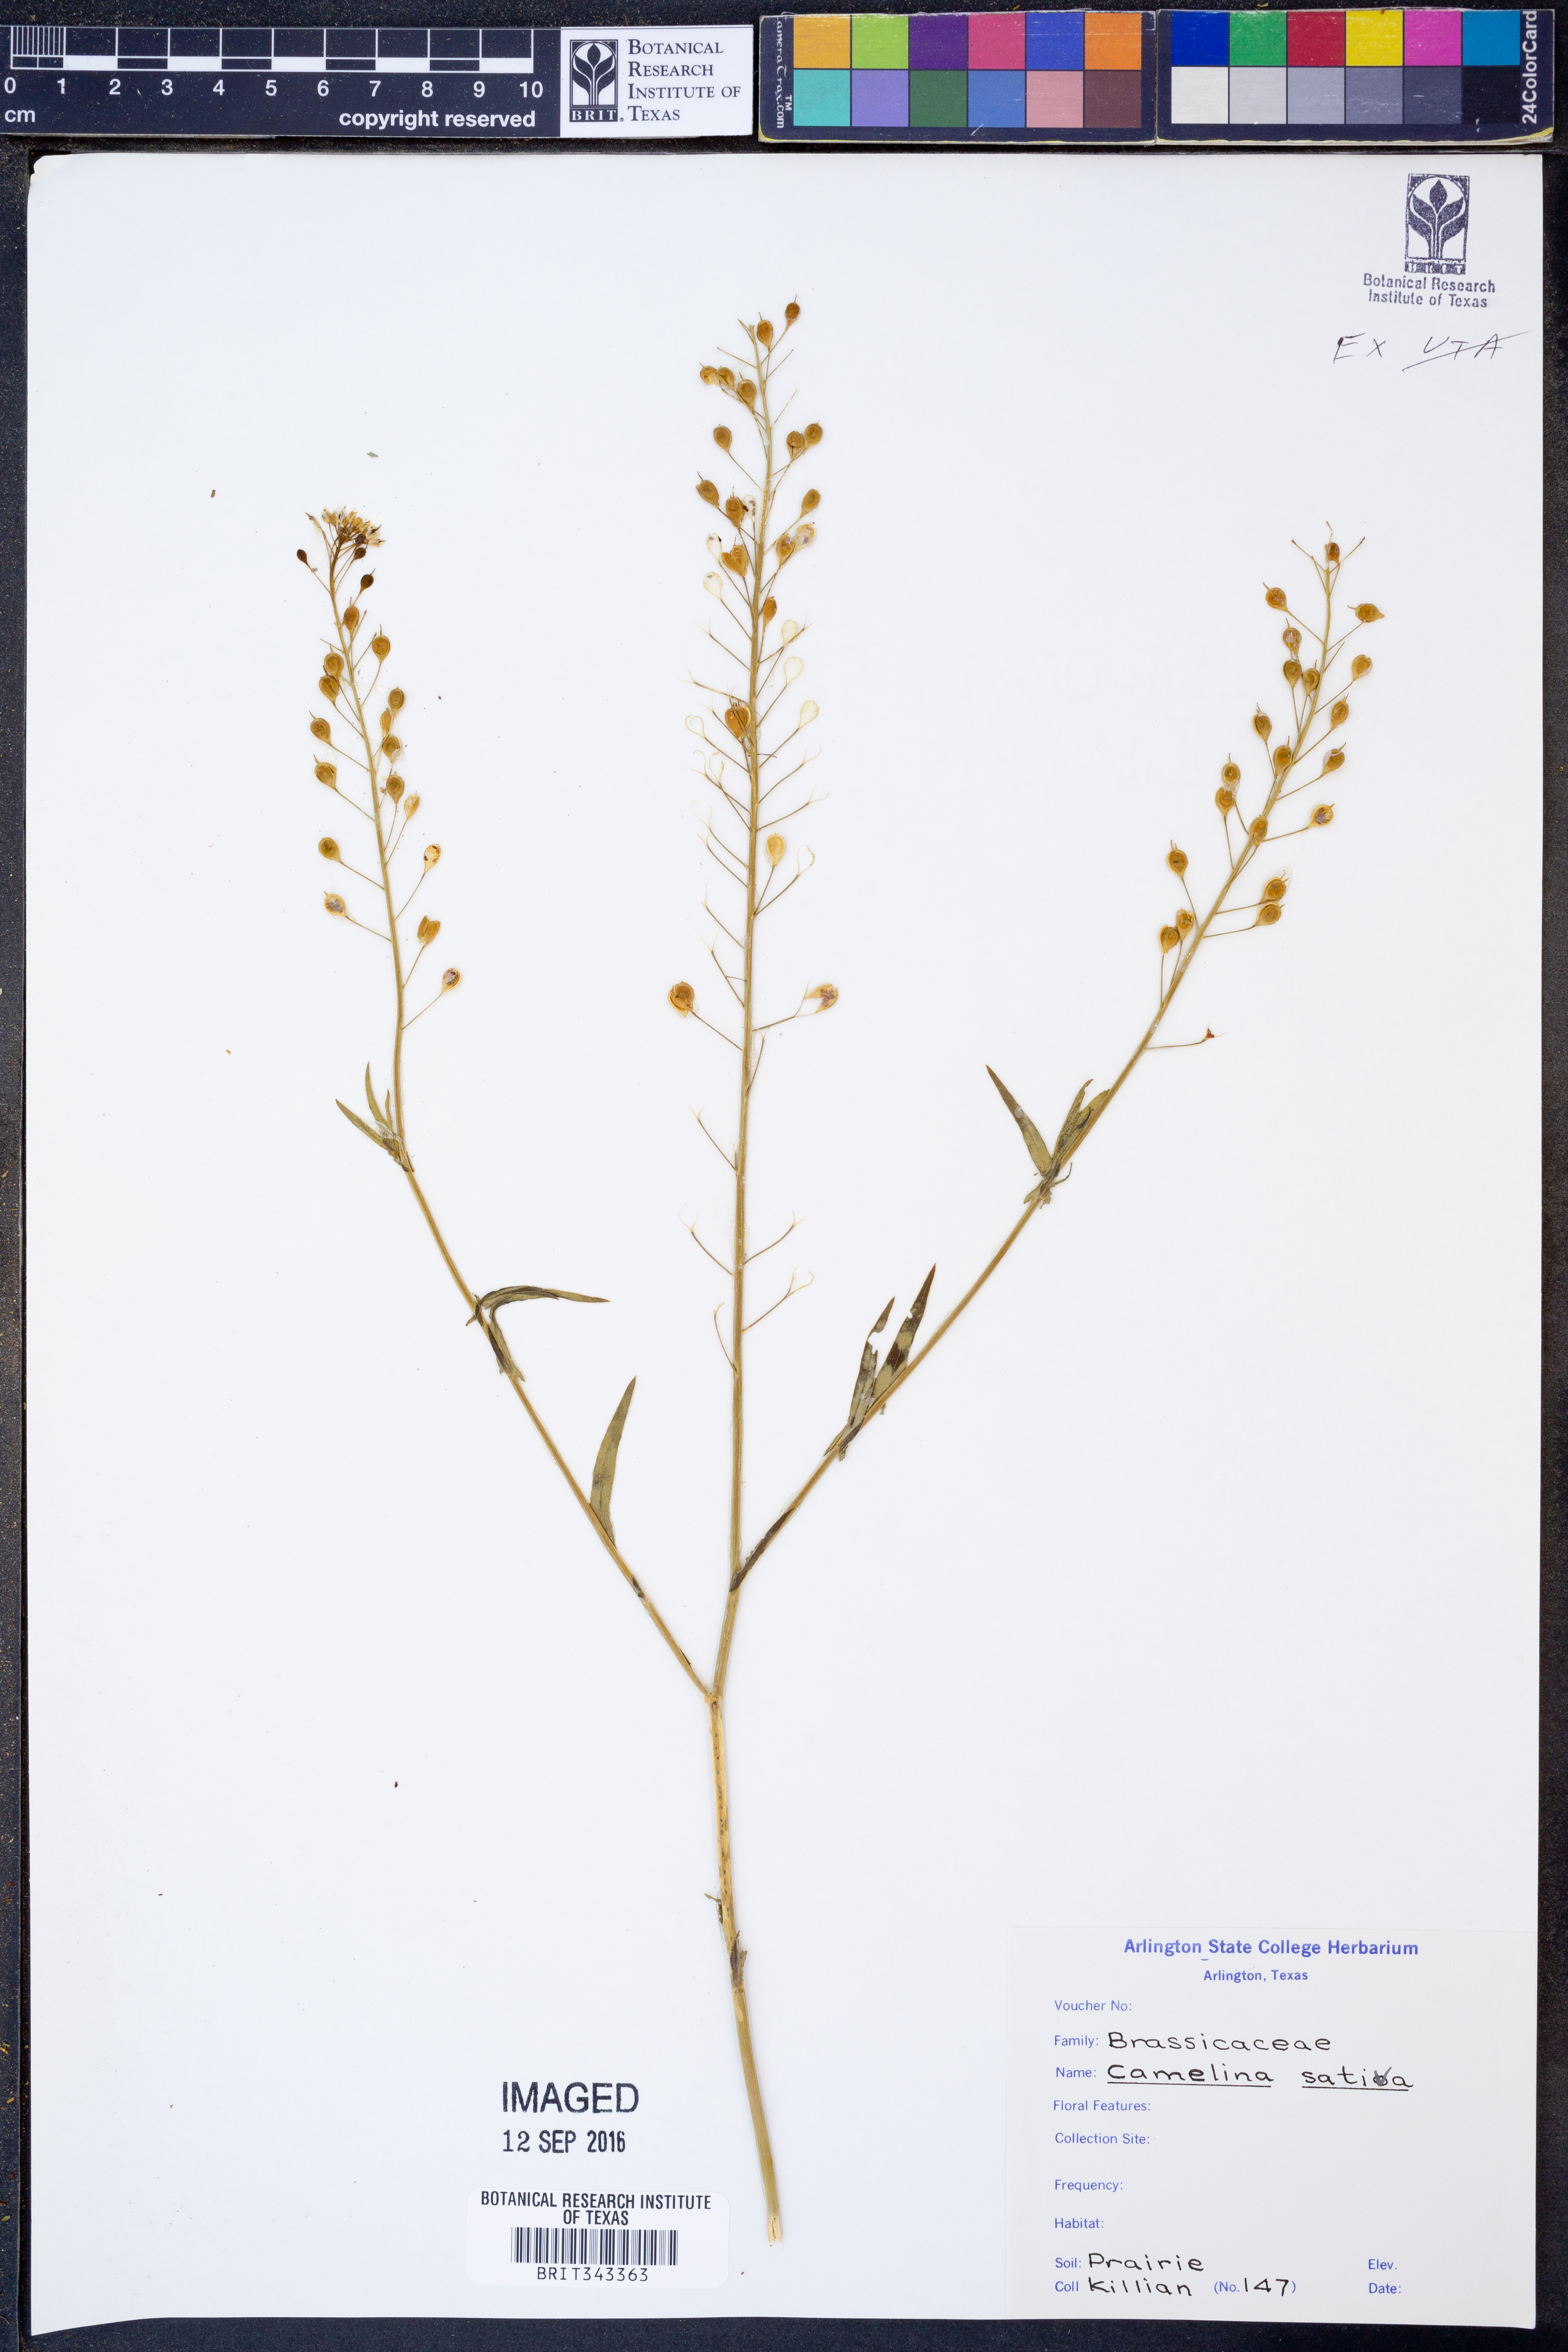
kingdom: Plantae
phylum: Tracheophyta
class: Magnoliopsida
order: Brassicales
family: Brassicaceae
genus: Camelina
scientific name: Camelina sativa
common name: Gold-of-pleasure
